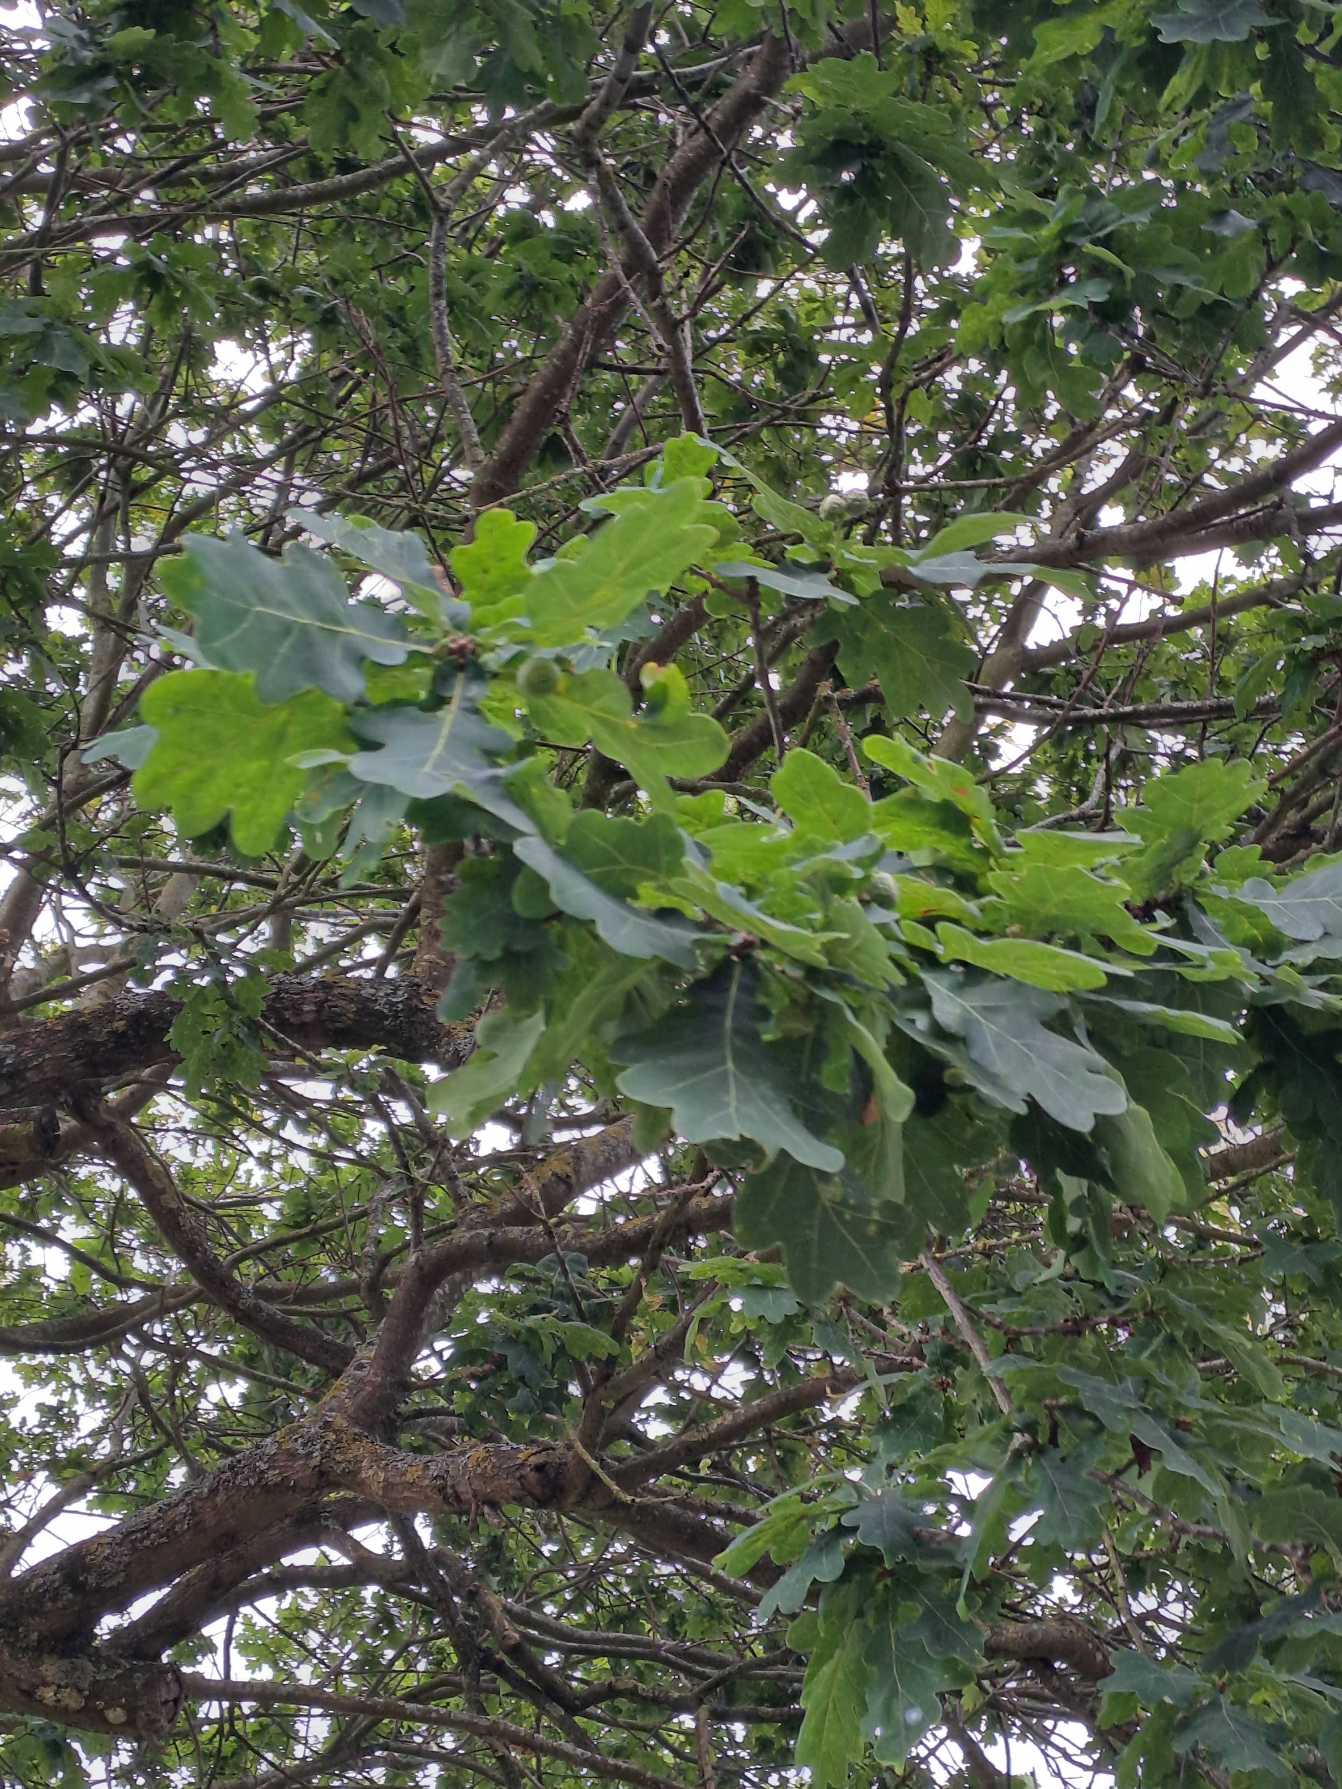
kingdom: Plantae
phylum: Tracheophyta
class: Magnoliopsida
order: Fagales
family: Fagaceae
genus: Quercus
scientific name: Quercus robur
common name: Stilk-eg/almindelig eg
